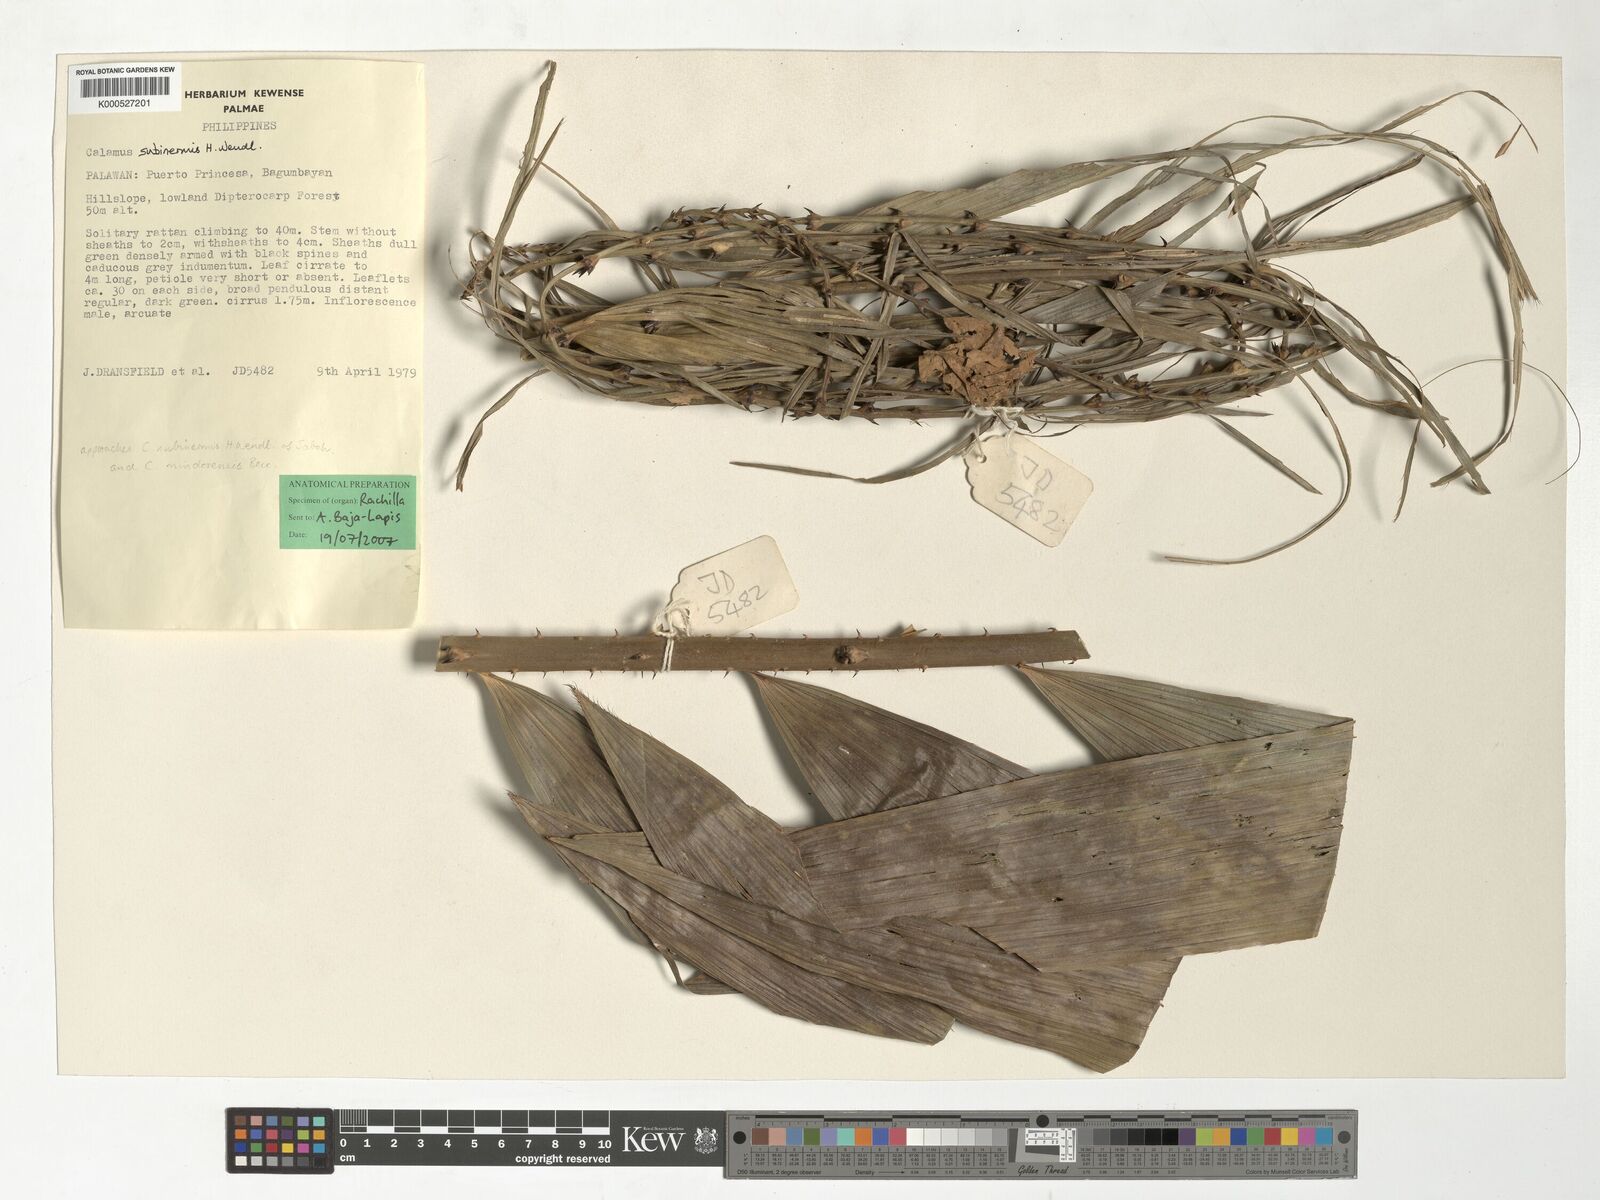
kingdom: Plantae
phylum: Tracheophyta
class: Liliopsida
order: Arecales
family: Arecaceae
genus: Calamus
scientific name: Calamus moseleyanus
